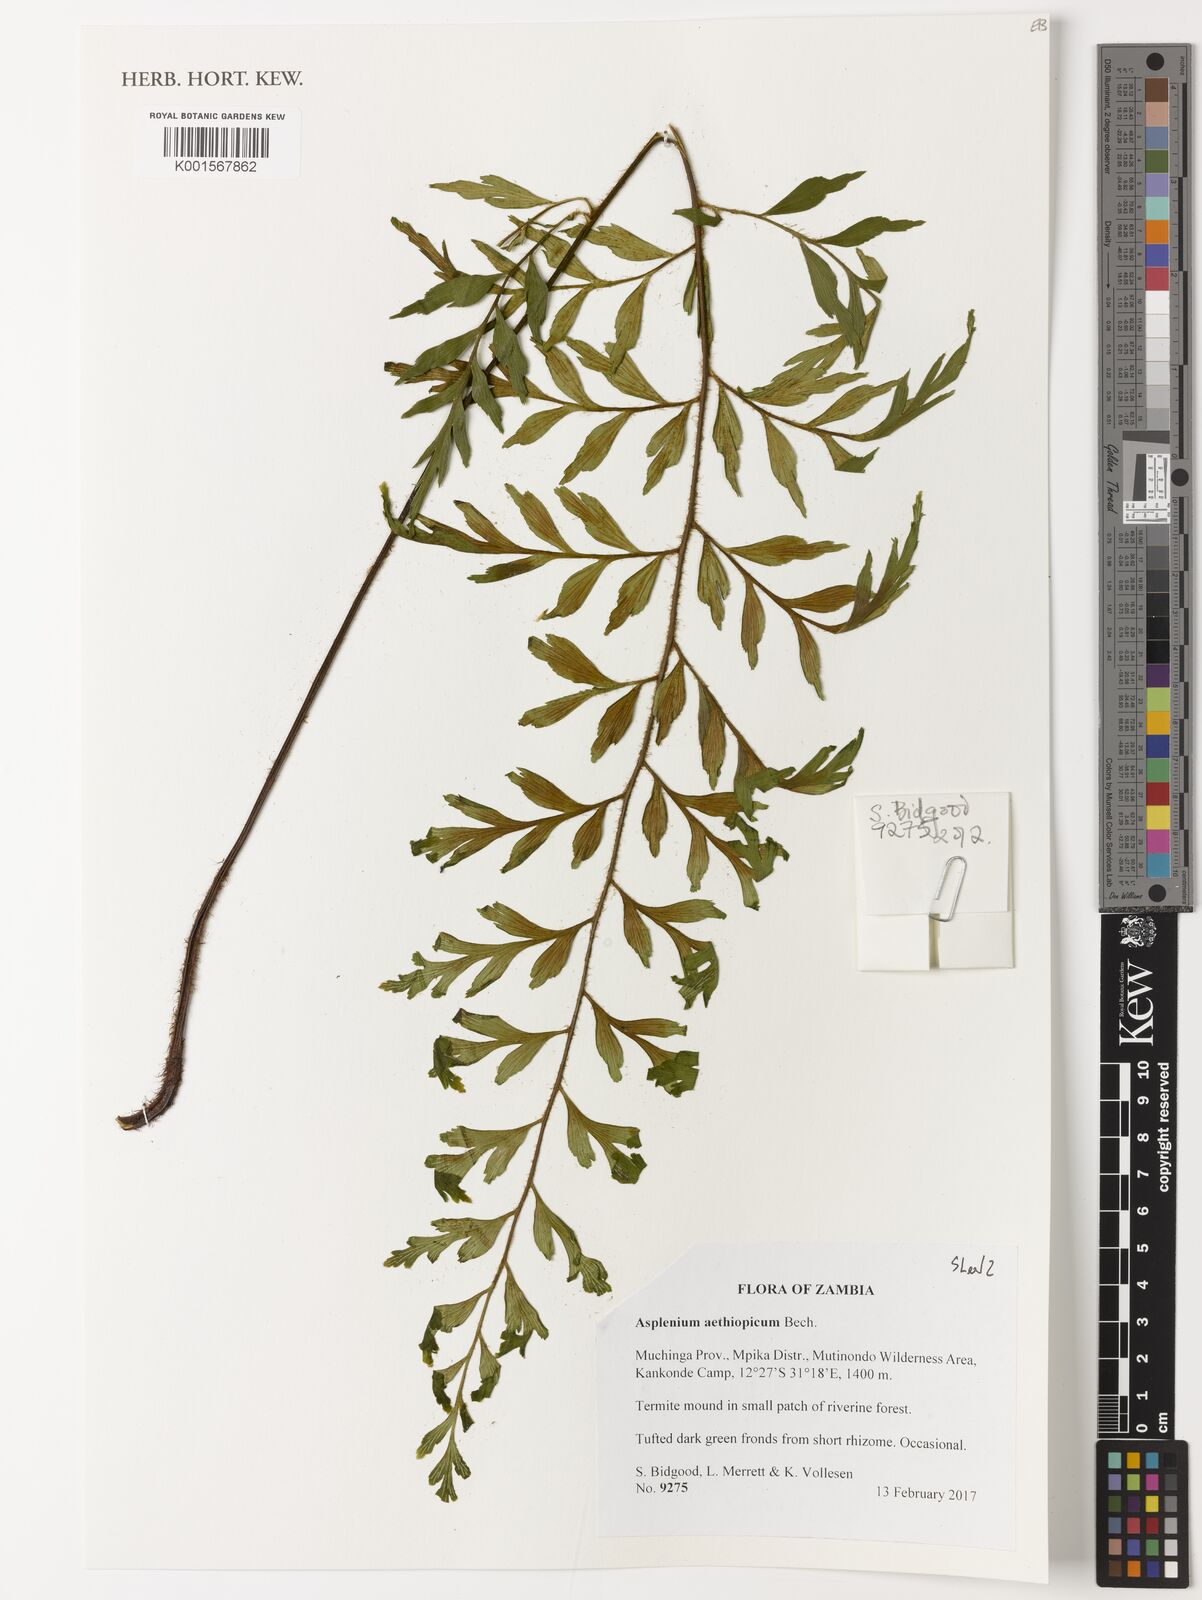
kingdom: Plantae
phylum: Tracheophyta
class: Polypodiopsida
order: Polypodiales
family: Aspleniaceae
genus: Asplenium
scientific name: Asplenium aethiopicum
